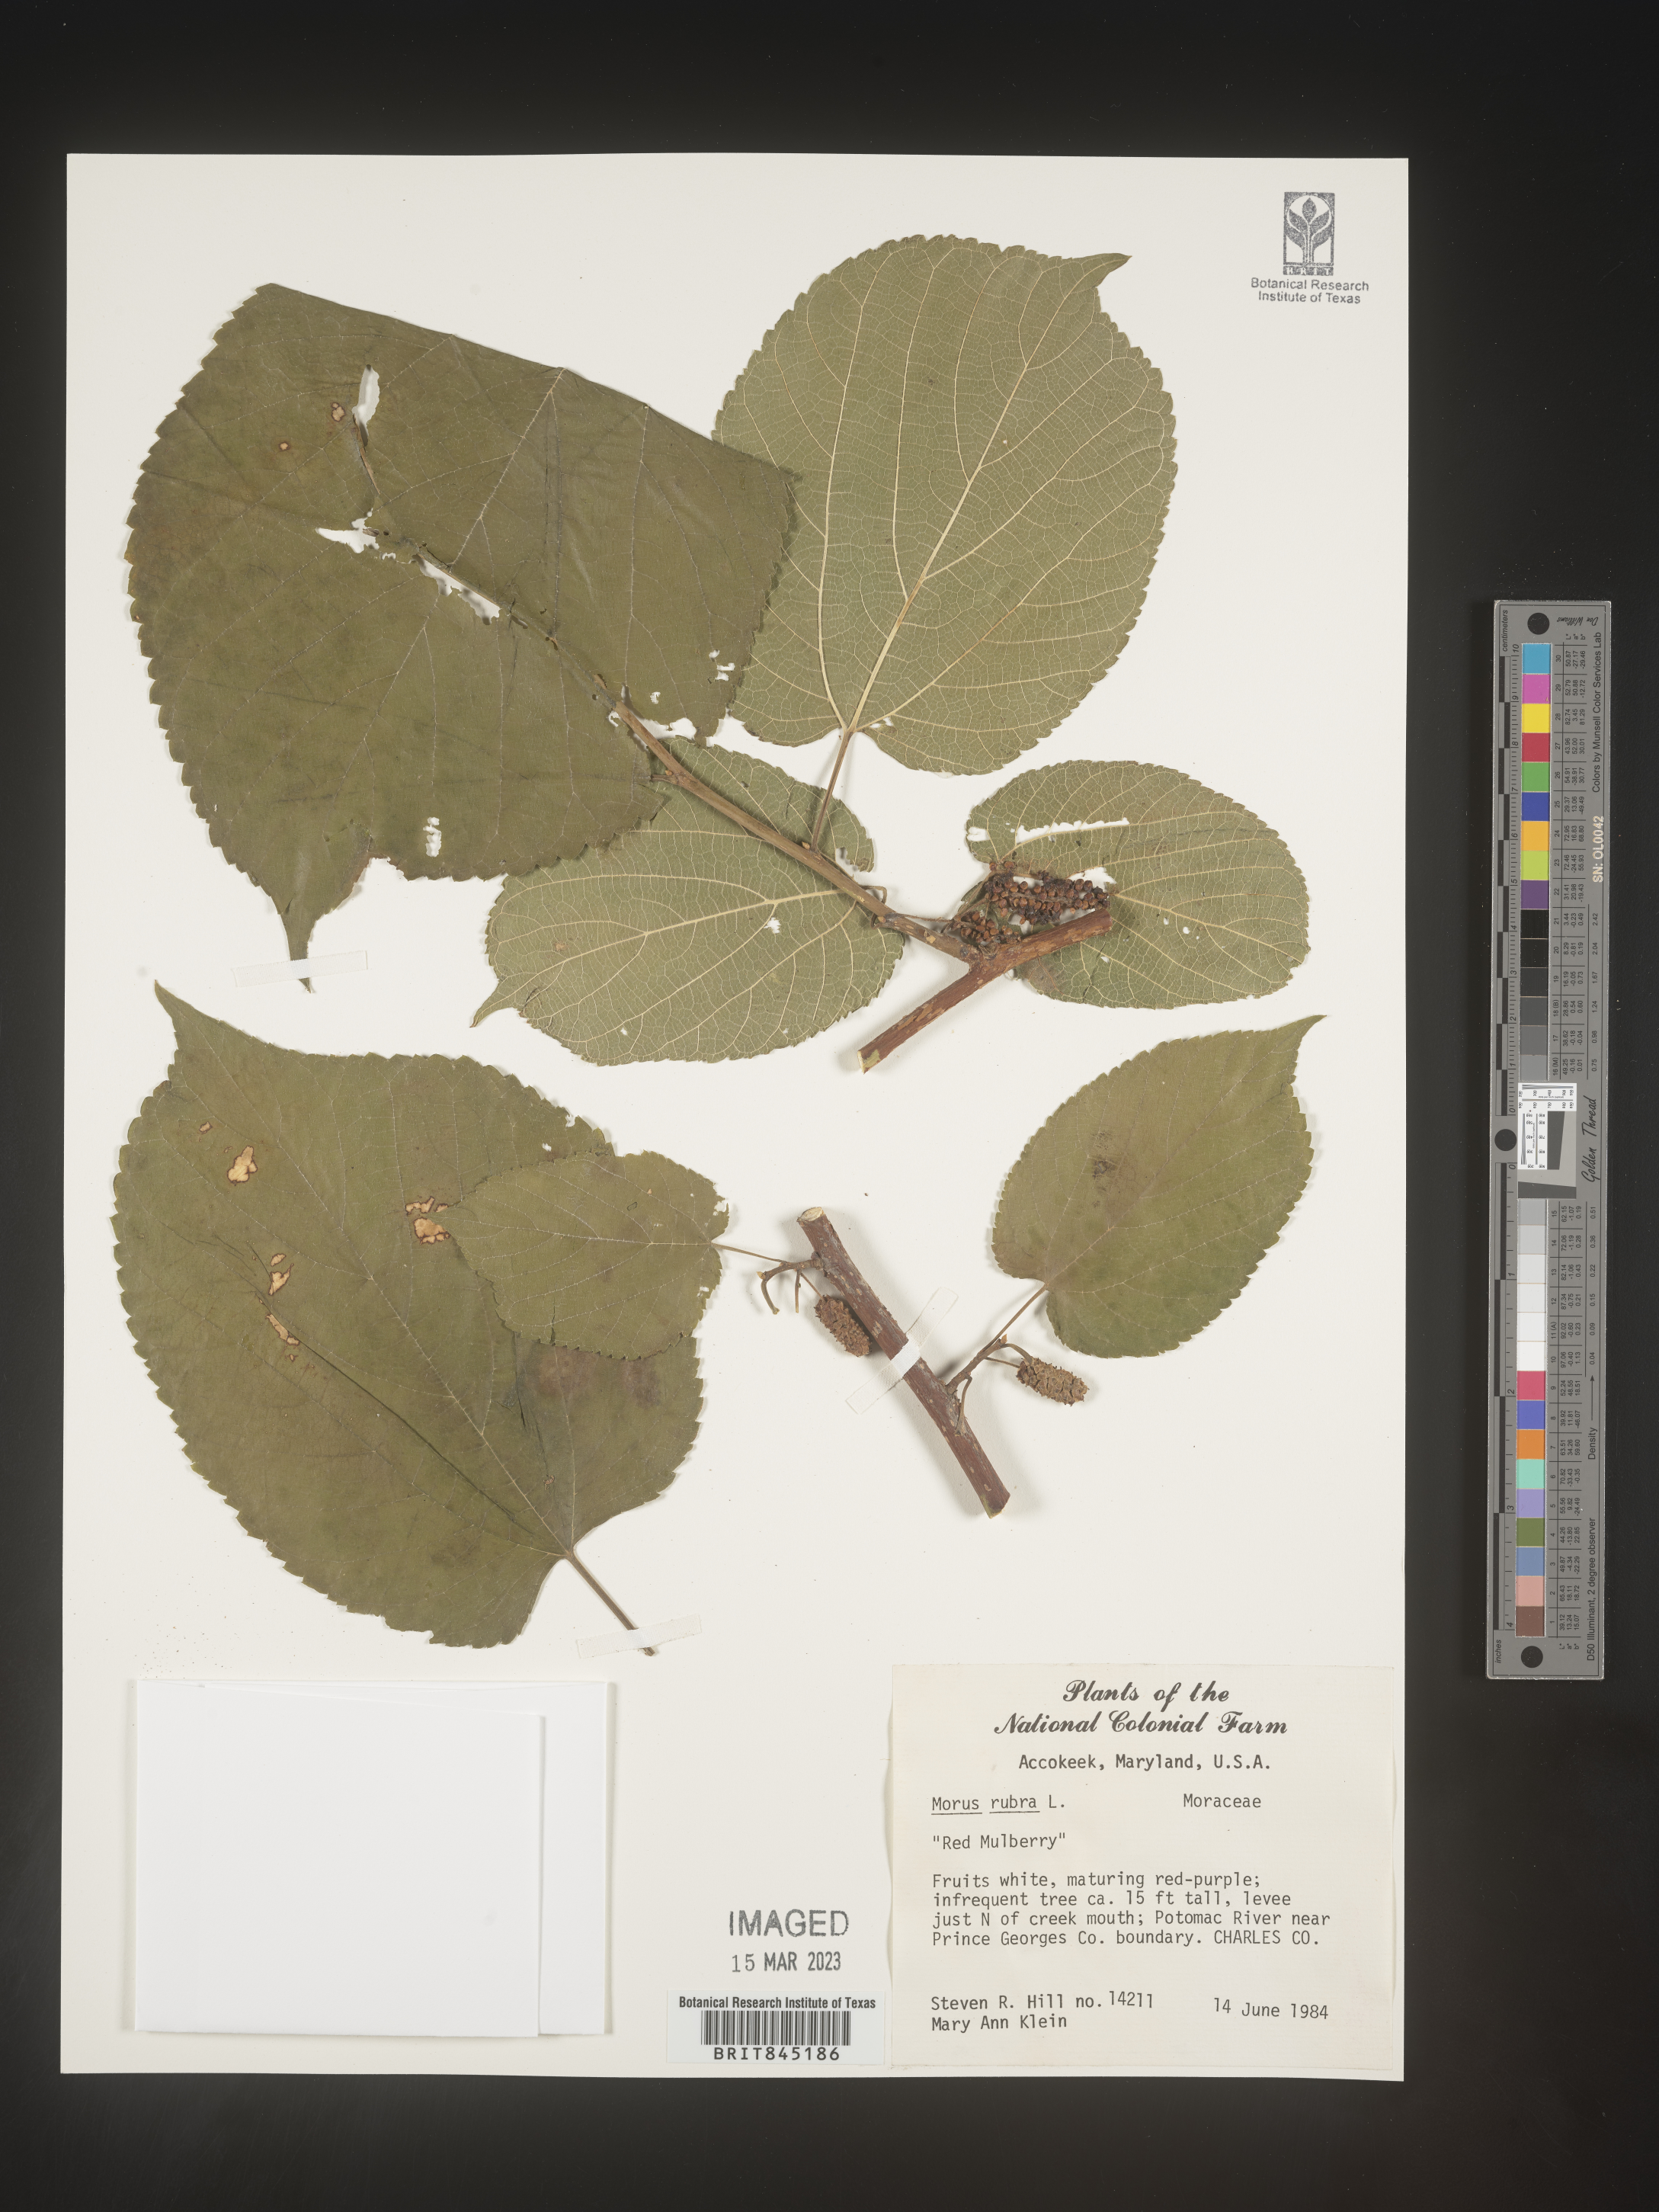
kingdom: Plantae
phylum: Tracheophyta
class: Magnoliopsida
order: Rosales
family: Moraceae
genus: Morus
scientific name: Morus rubra
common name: Red mulberry
